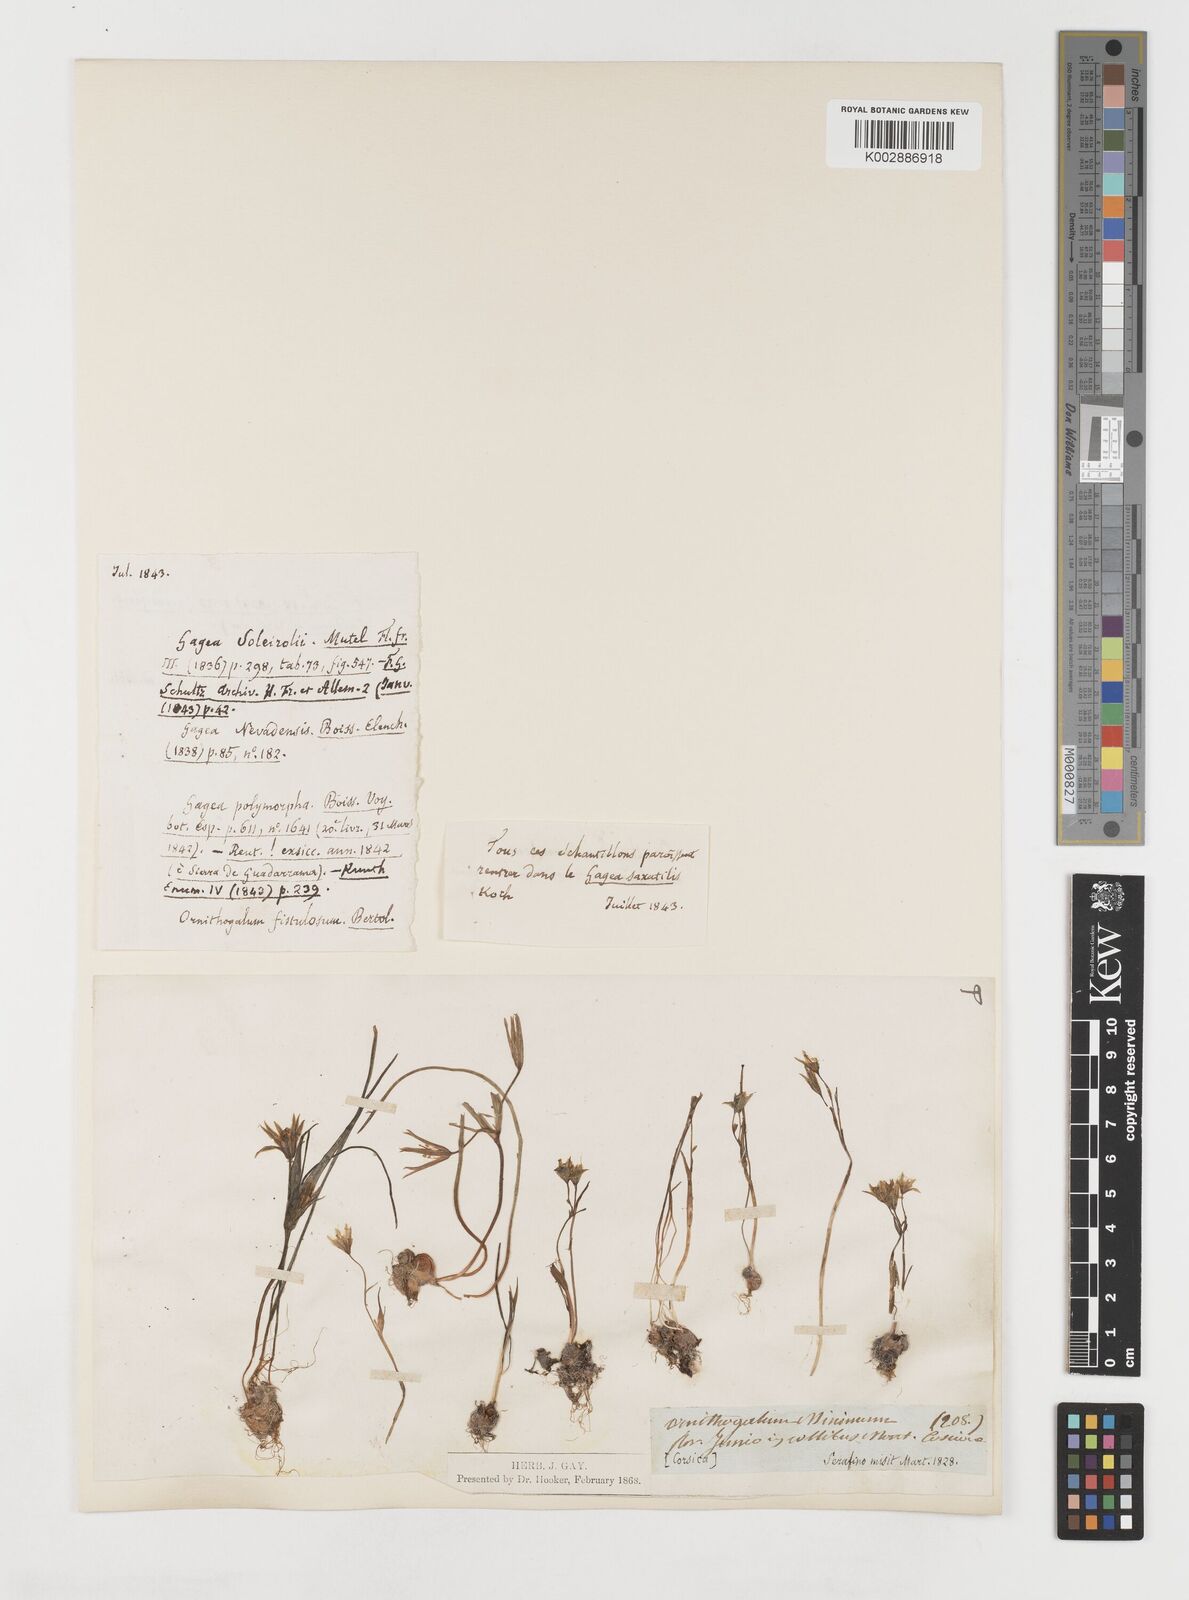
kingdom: Plantae
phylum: Tracheophyta
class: Liliopsida
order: Liliales
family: Liliaceae
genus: Gagea
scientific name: Gagea soleirolii
